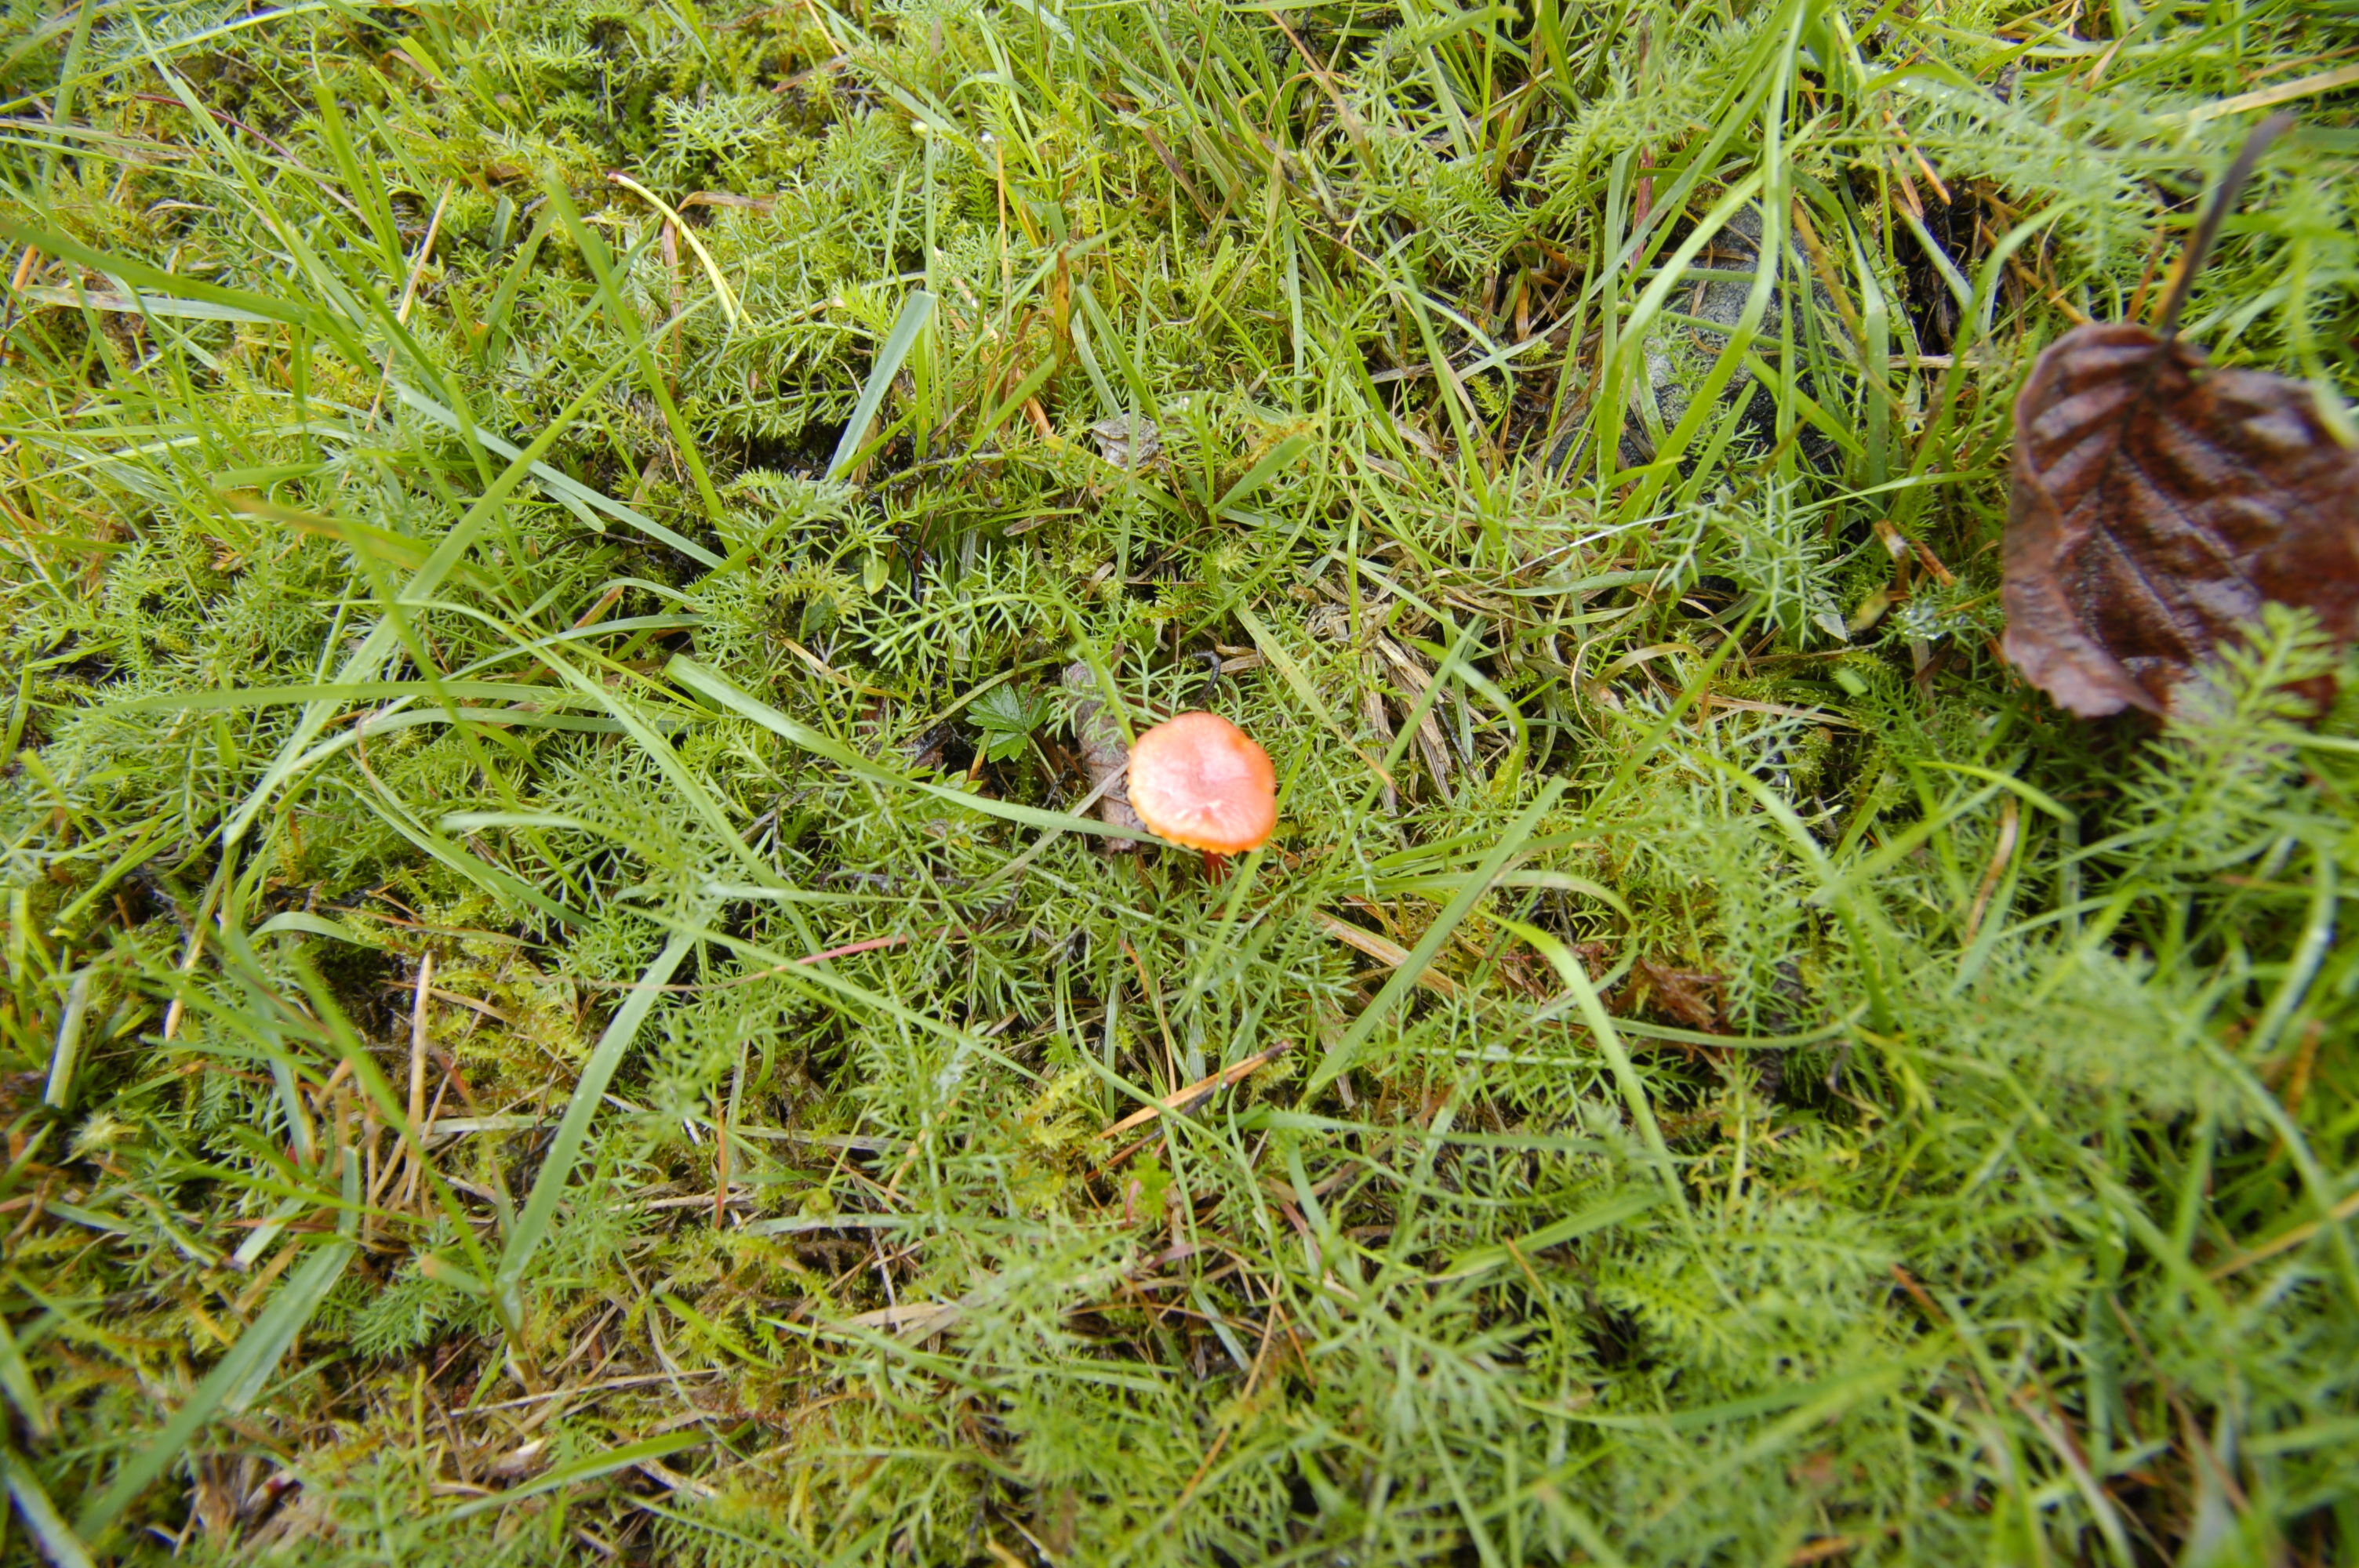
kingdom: Fungi
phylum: Basidiomycota
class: Agaricomycetes
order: Agaricales
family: Hygrophoraceae
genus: Hygrocybe
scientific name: Hygrocybe cantharellus
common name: Goblet waxcap
